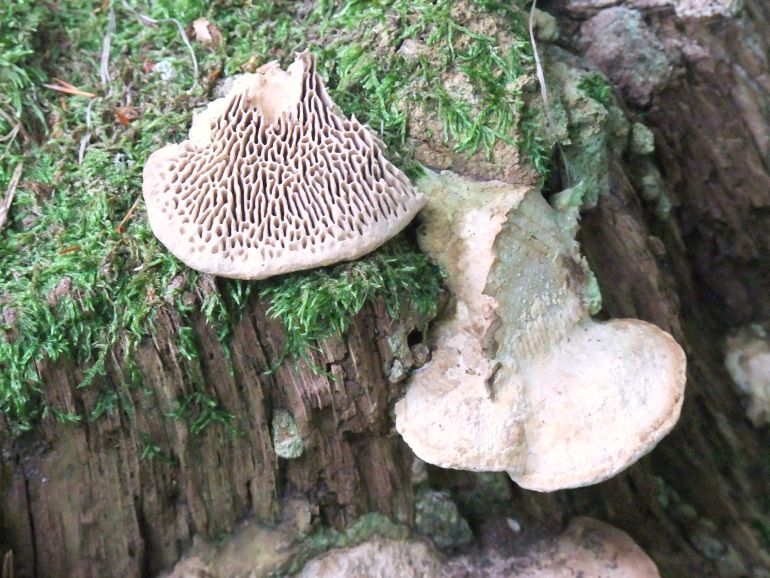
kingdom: Fungi
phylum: Basidiomycota
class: Agaricomycetes
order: Polyporales
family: Fomitopsidaceae
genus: Daedalea
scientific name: Daedalea quercina
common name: ege-labyrintsvamp
